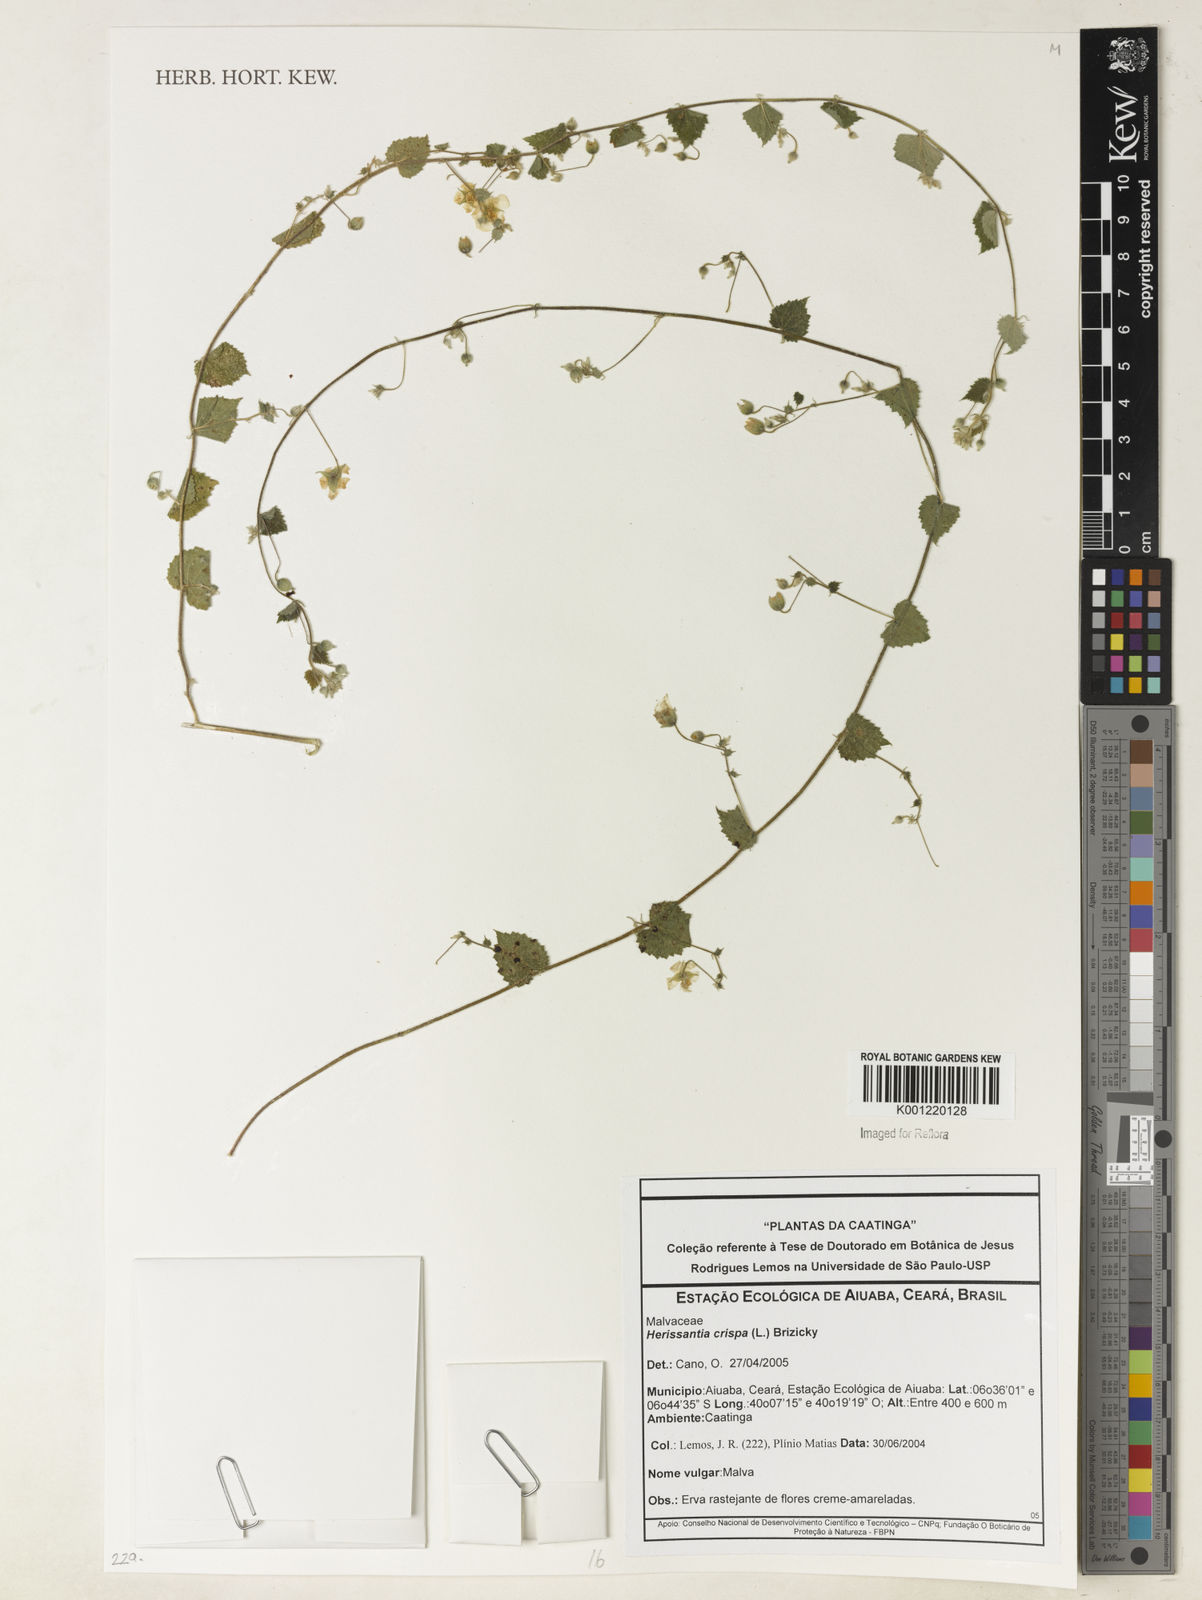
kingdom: Plantae
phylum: Tracheophyta
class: Magnoliopsida
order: Malvales
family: Malvaceae
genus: Herissantia
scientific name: Herissantia crispa
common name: Bladdermallow
